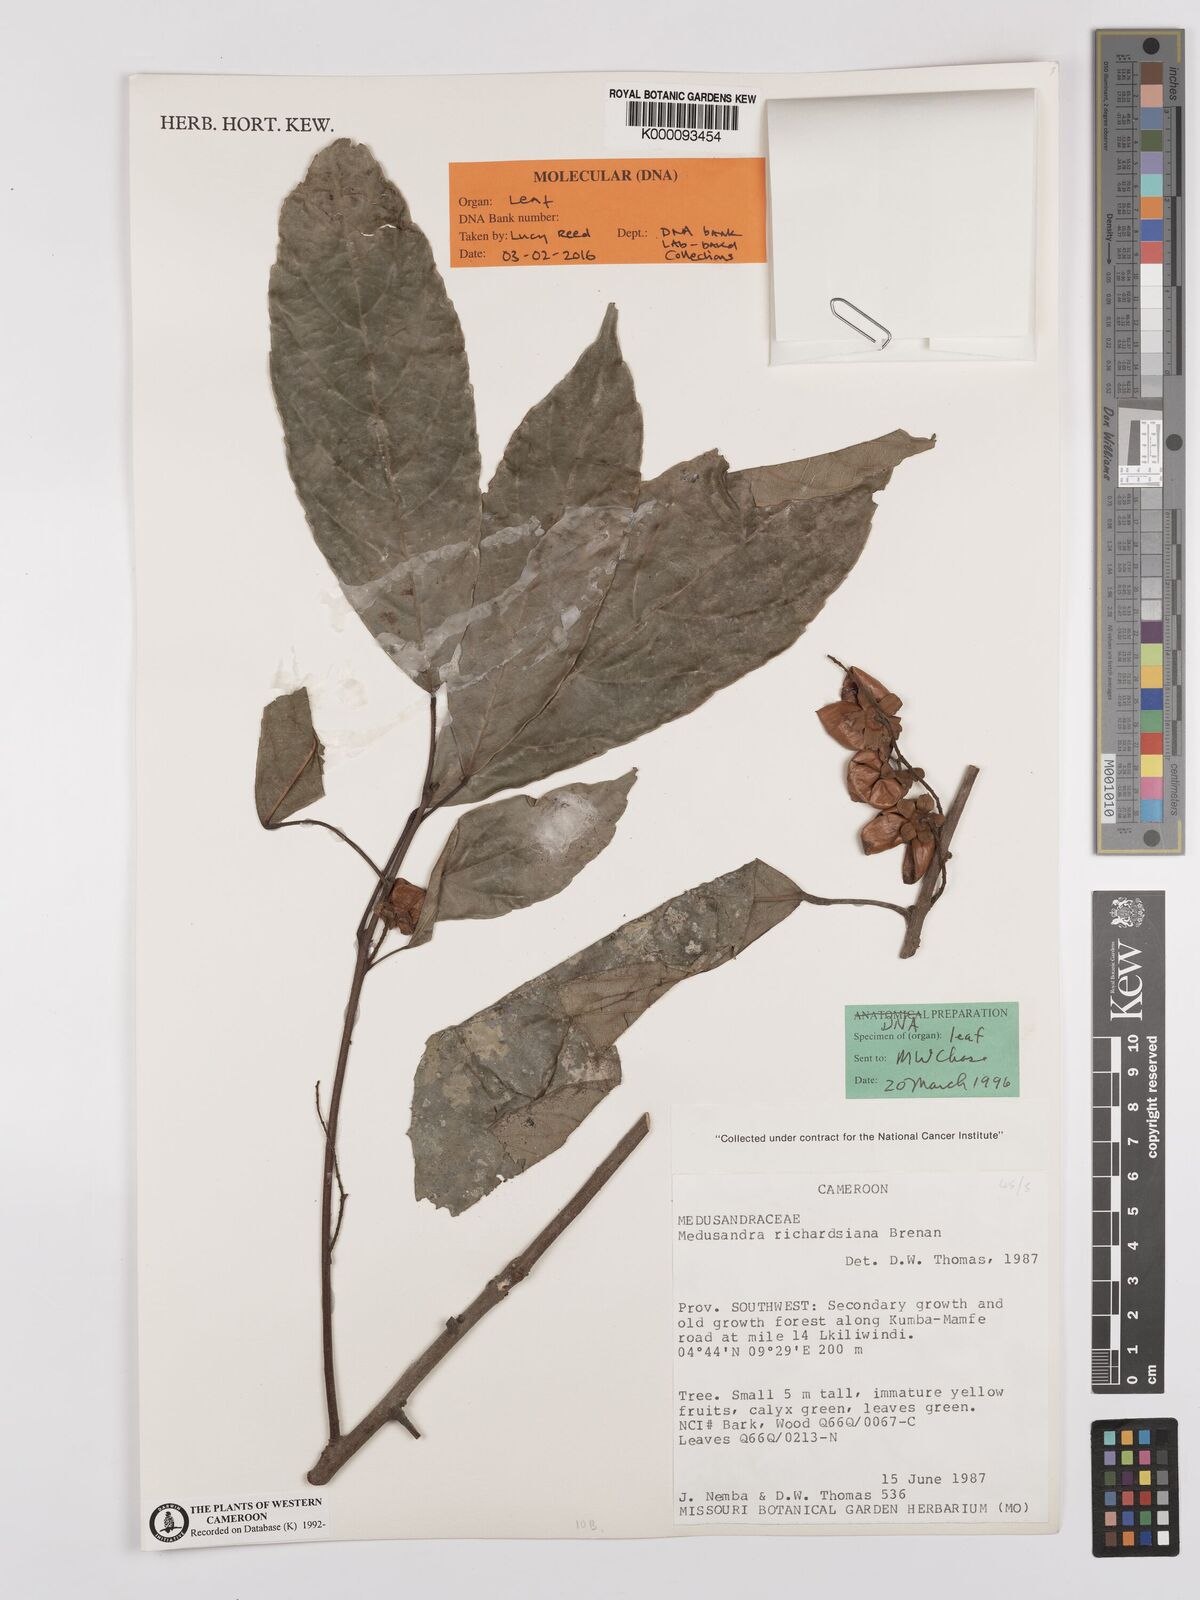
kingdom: Plantae
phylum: Tracheophyta
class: Magnoliopsida
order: Saxifragales
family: Peridiscaceae
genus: Medusandra
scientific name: Medusandra richardsiana
